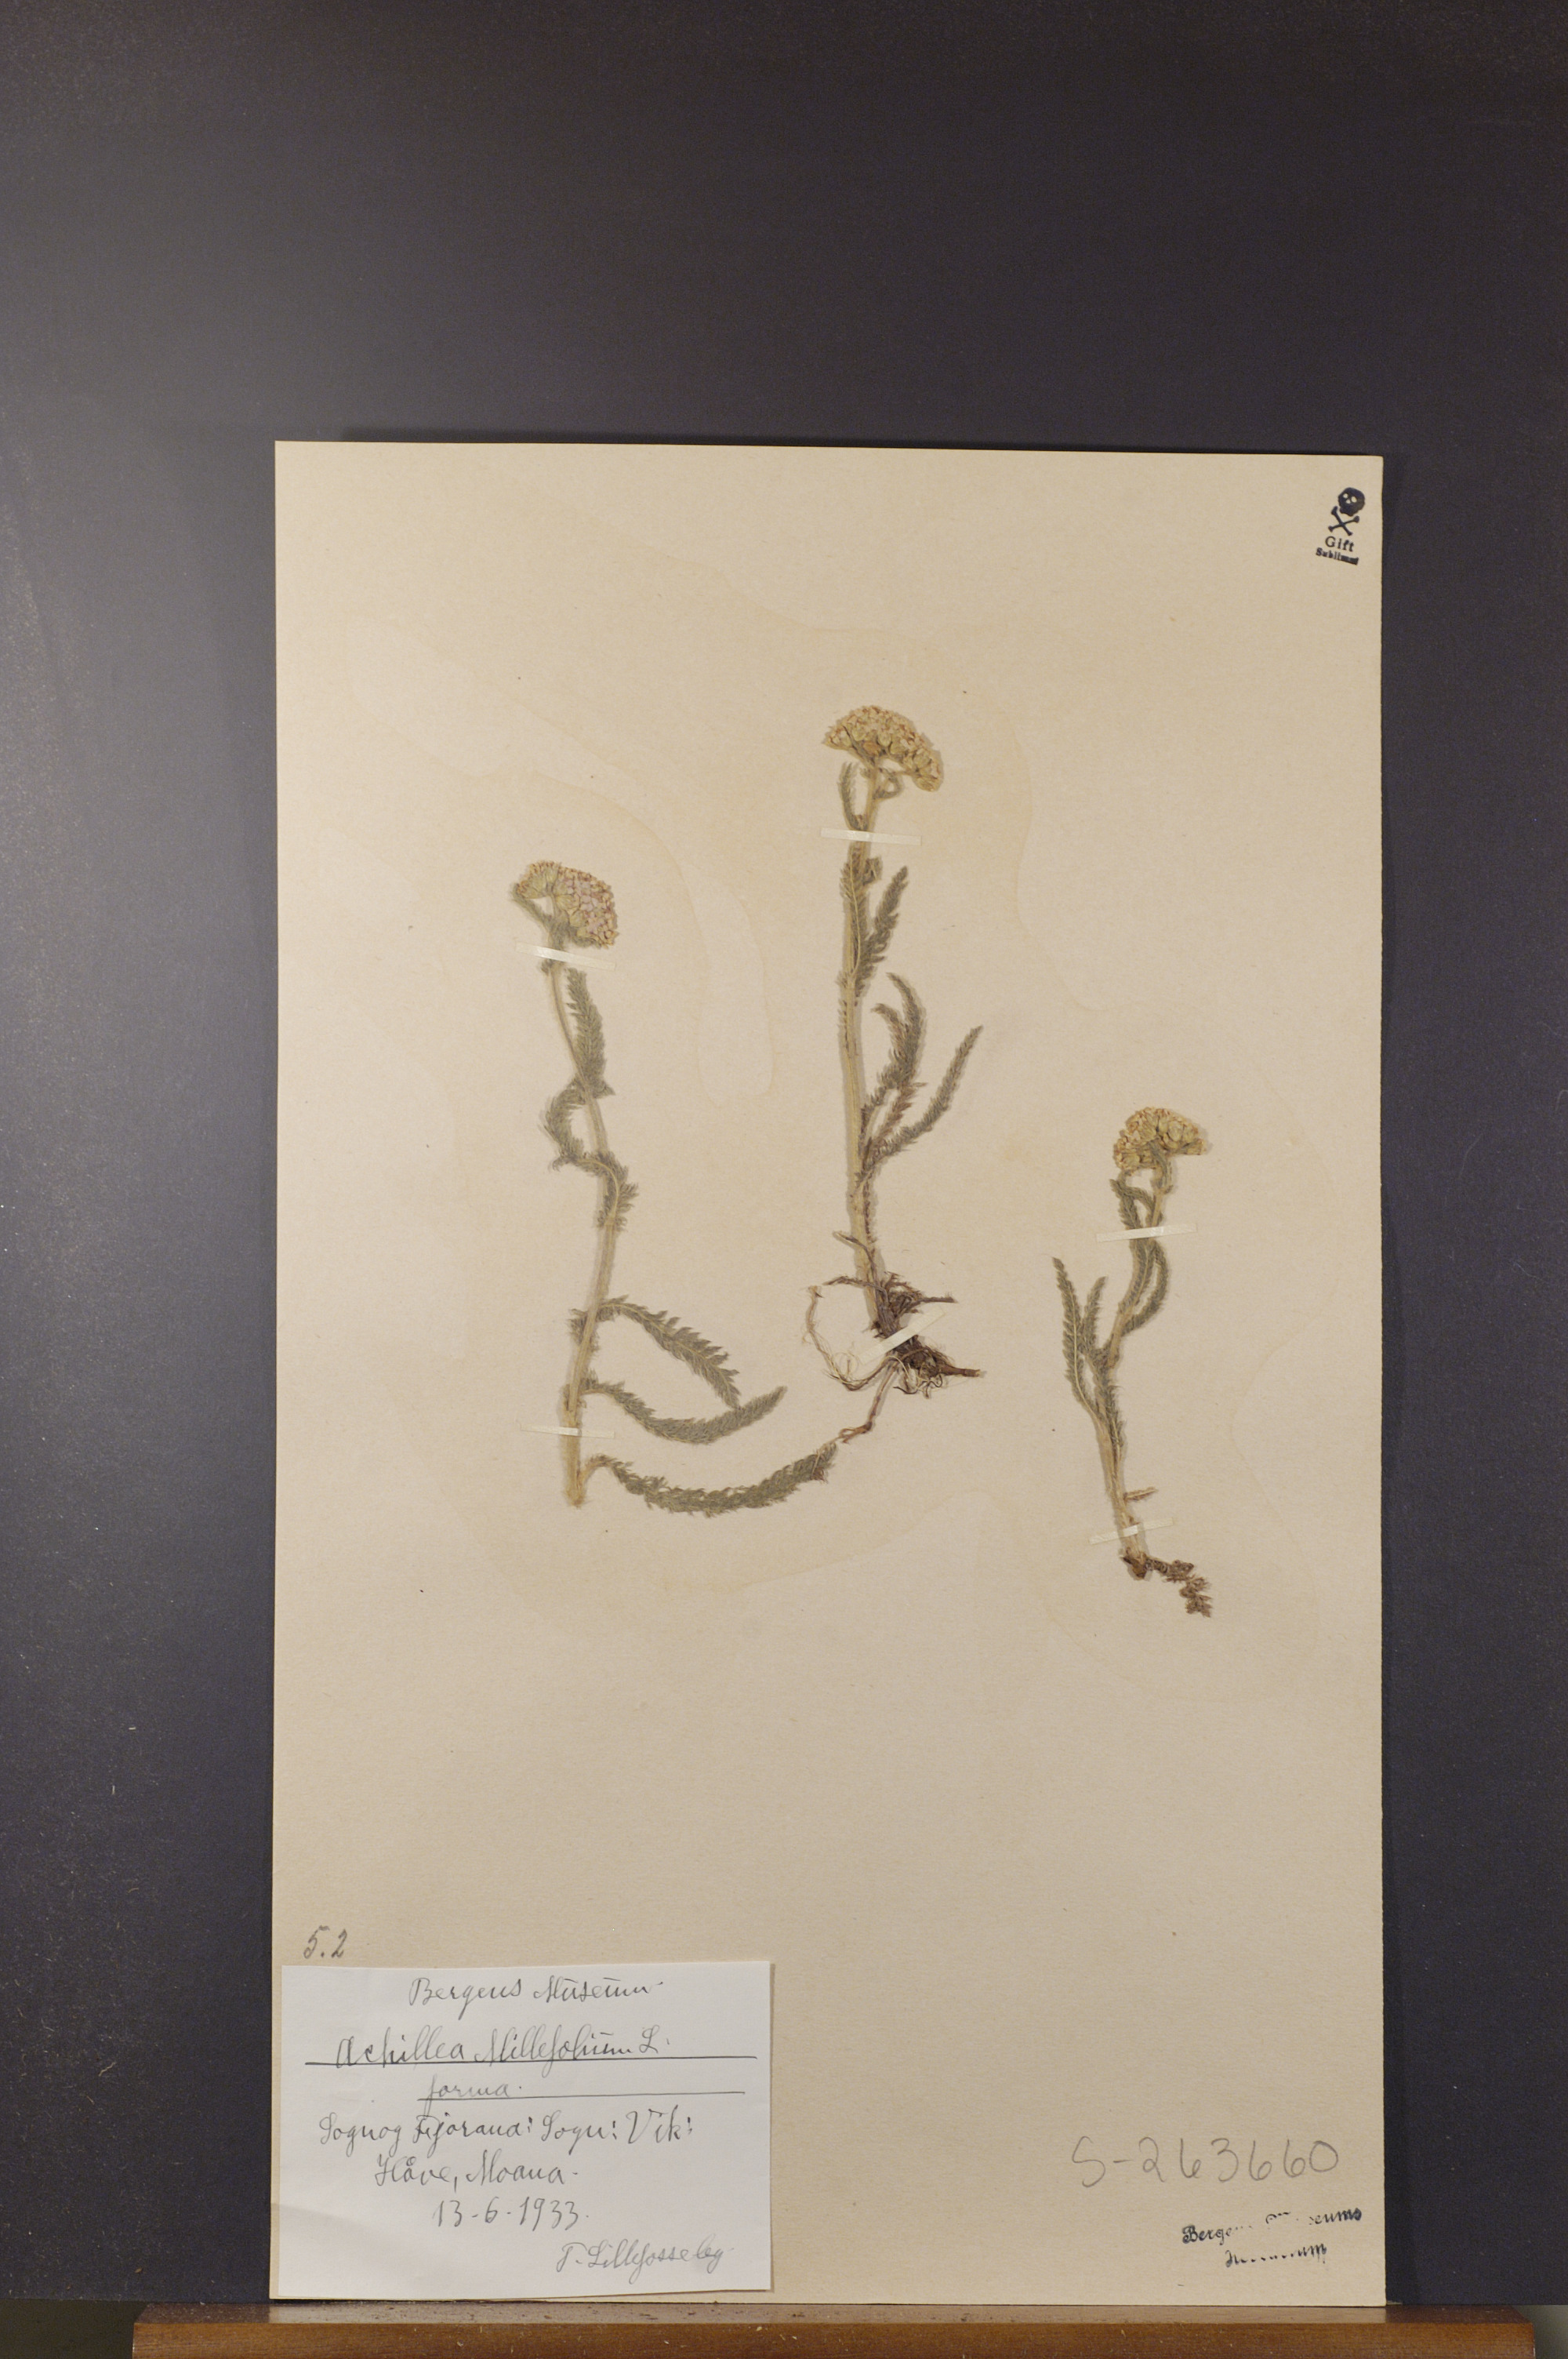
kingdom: Plantae
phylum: Tracheophyta
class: Magnoliopsida
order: Asterales
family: Asteraceae
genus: Achillea
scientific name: Achillea millefolium
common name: Yarrow
